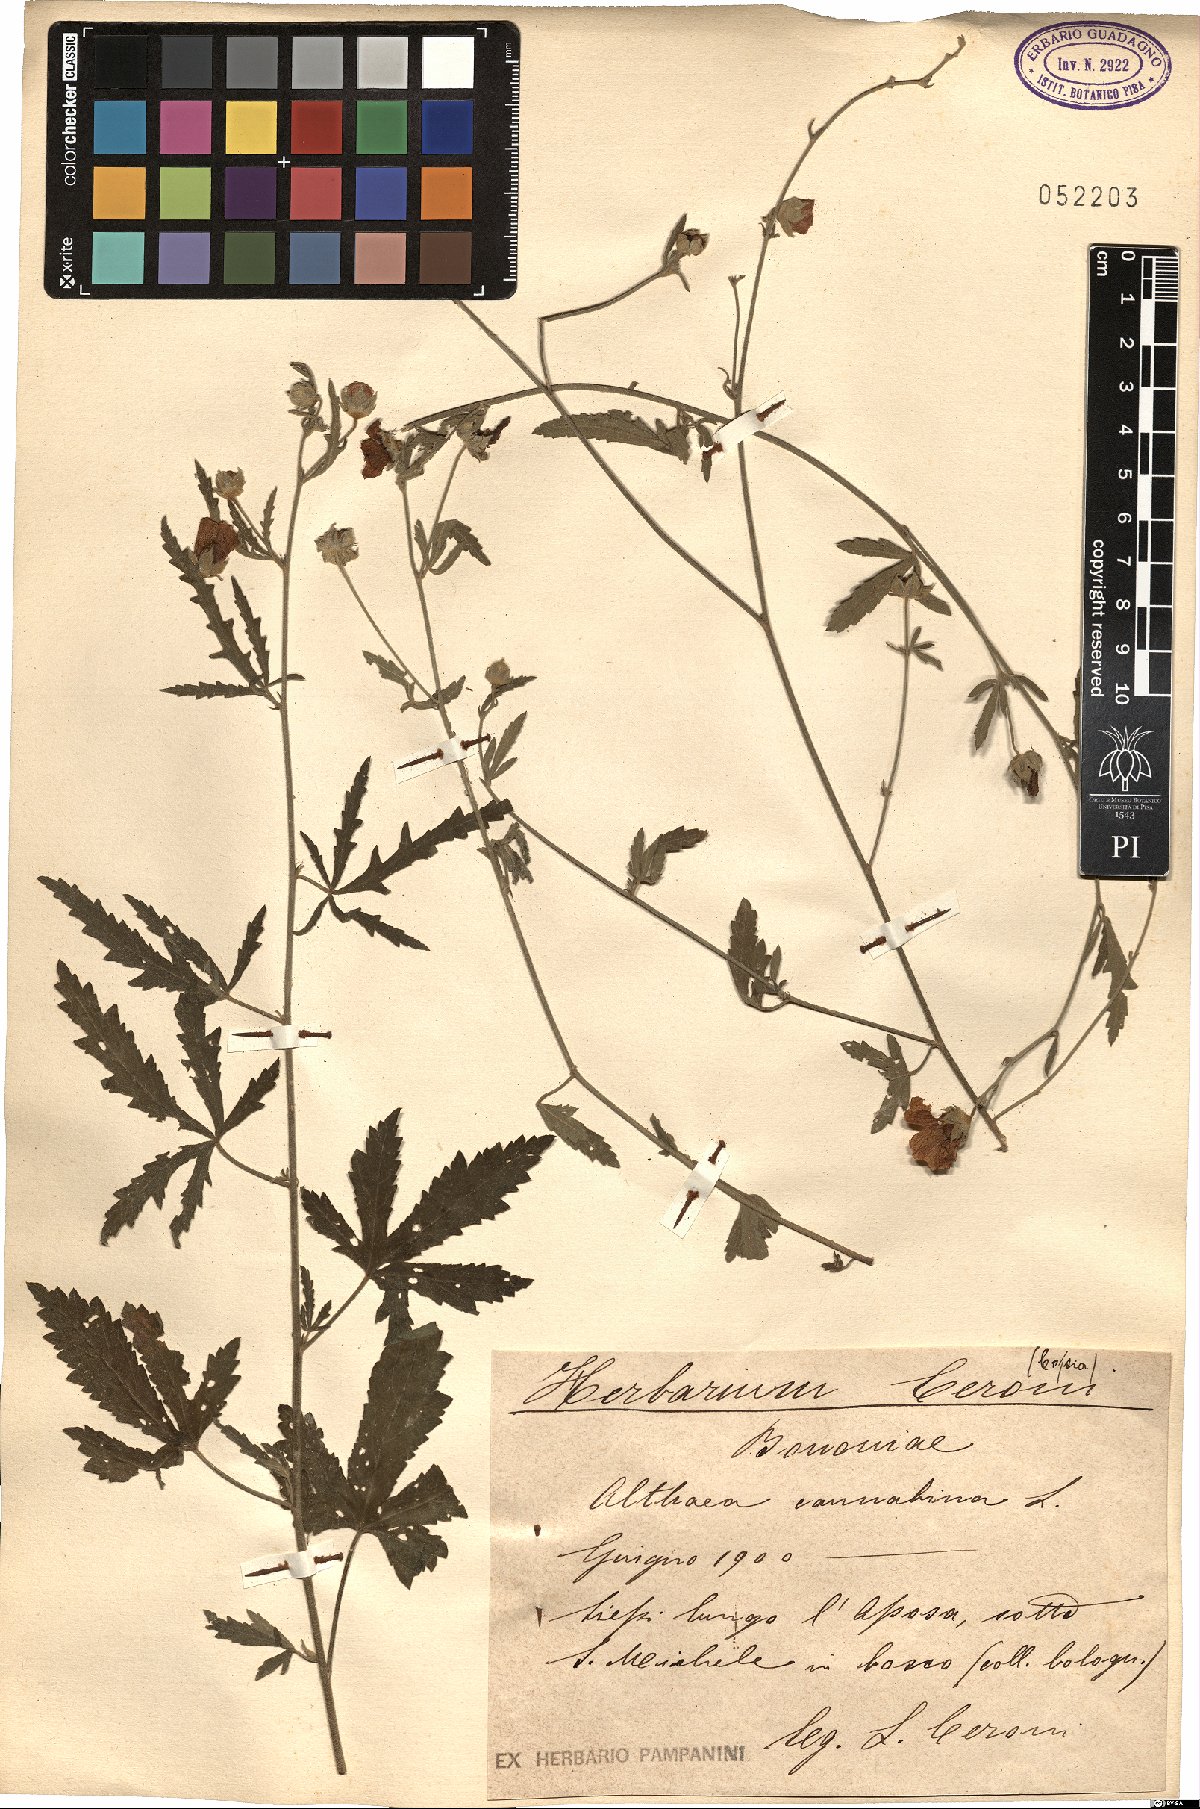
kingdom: Plantae
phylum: Tracheophyta
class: Magnoliopsida
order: Malvales
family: Malvaceae
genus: Althaea
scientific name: Althaea cannabina
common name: Palm-leaf marshmallow
